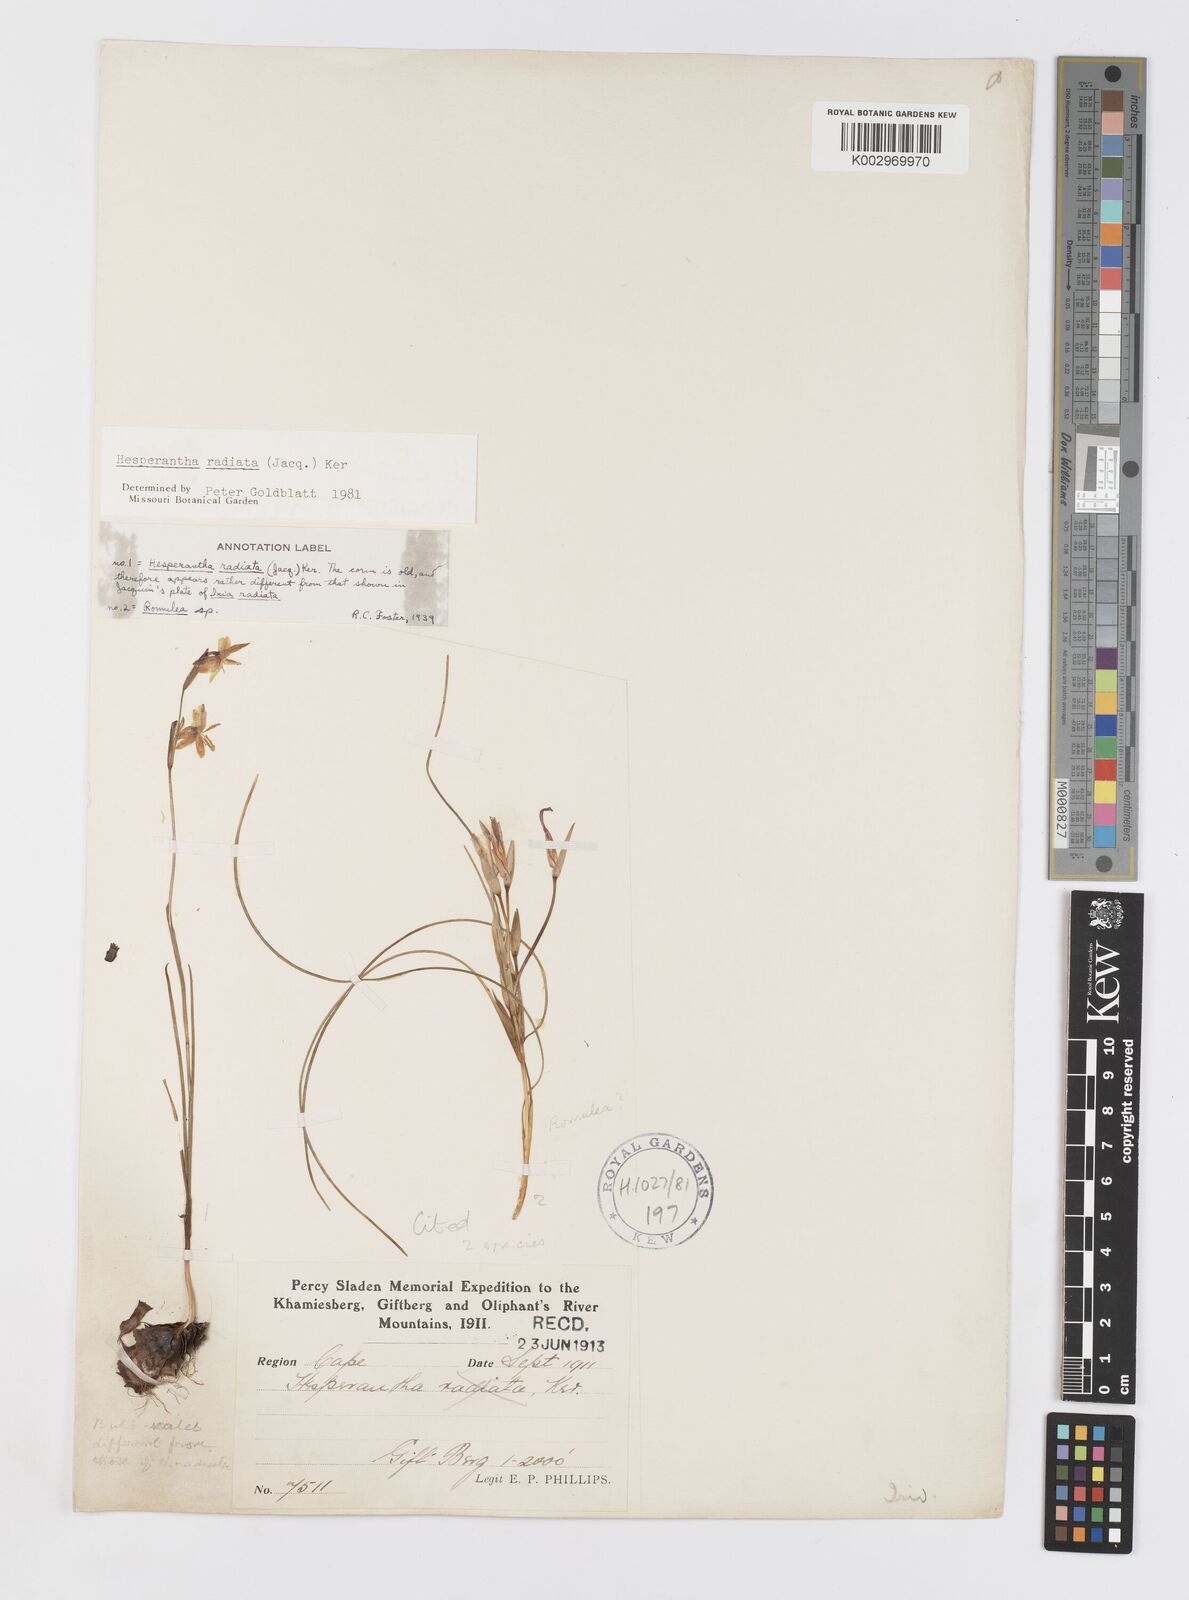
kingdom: Plantae
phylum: Tracheophyta
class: Liliopsida
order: Asparagales
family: Iridaceae
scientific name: Iridaceae
